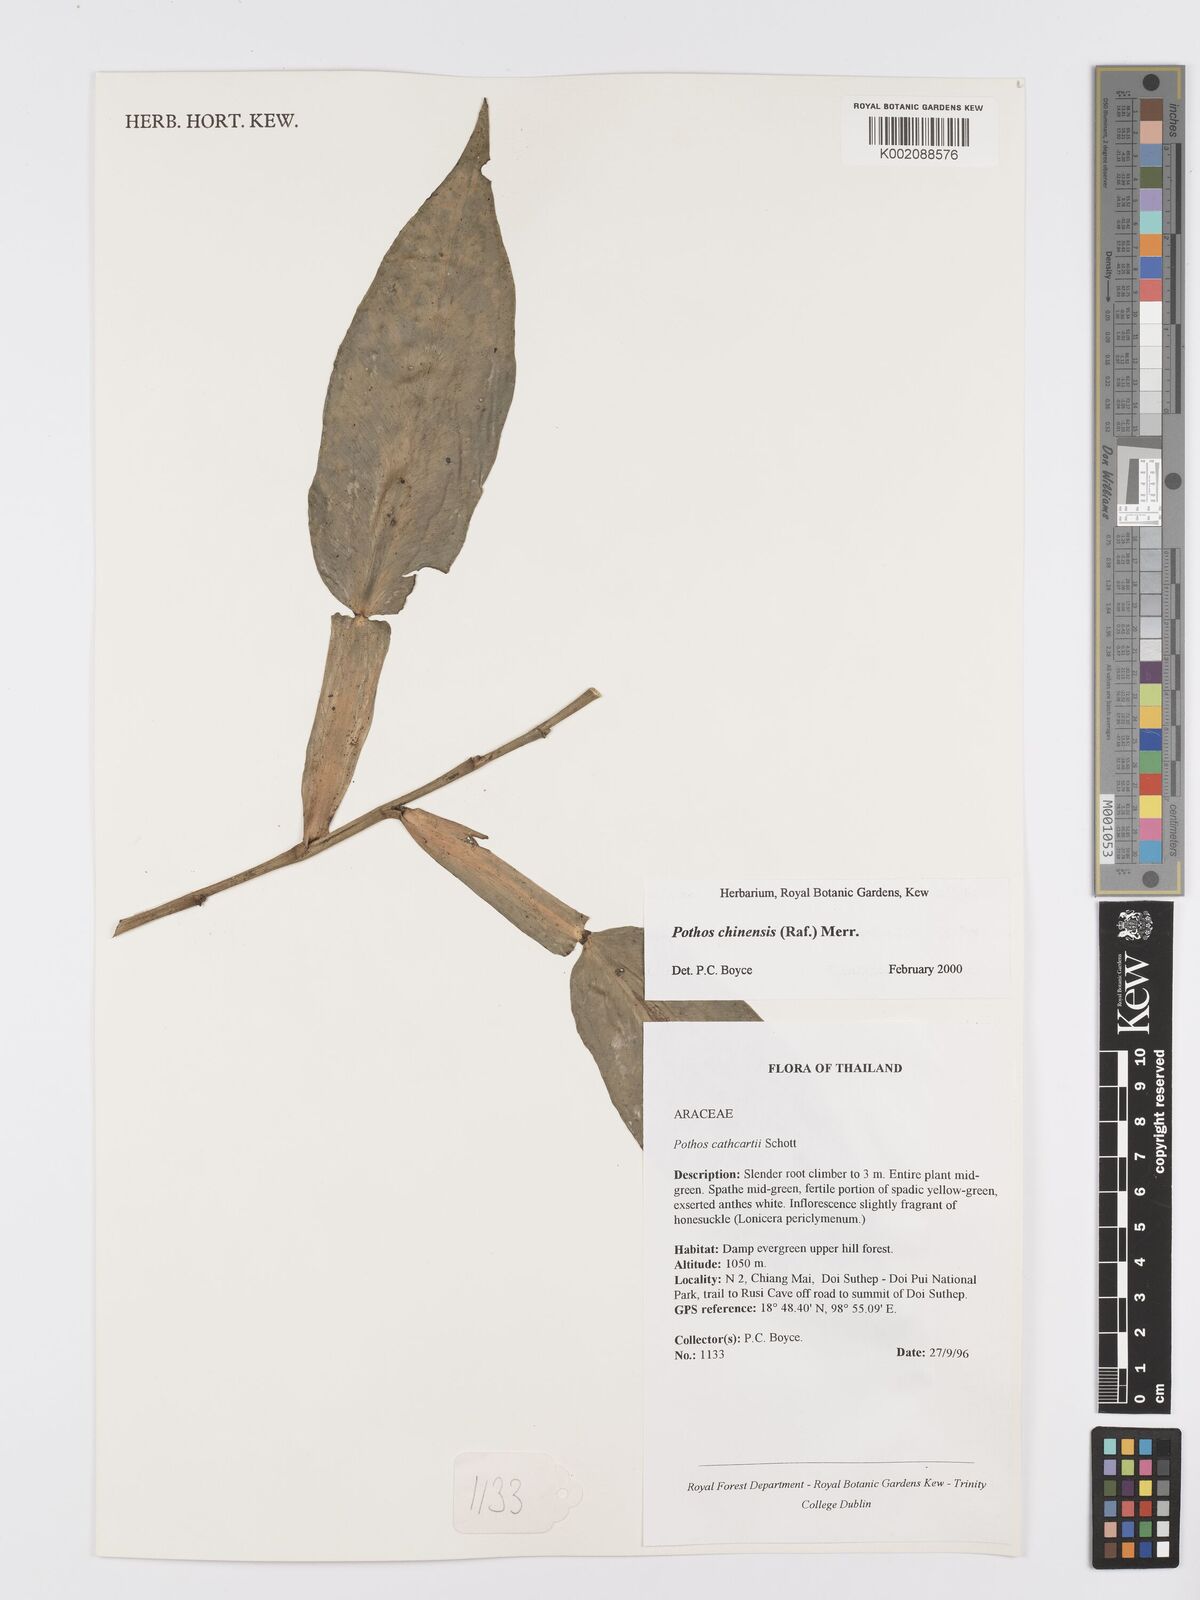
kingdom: Plantae
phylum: Tracheophyta
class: Liliopsida
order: Alismatales
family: Araceae
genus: Pothos
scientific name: Pothos chinensis
